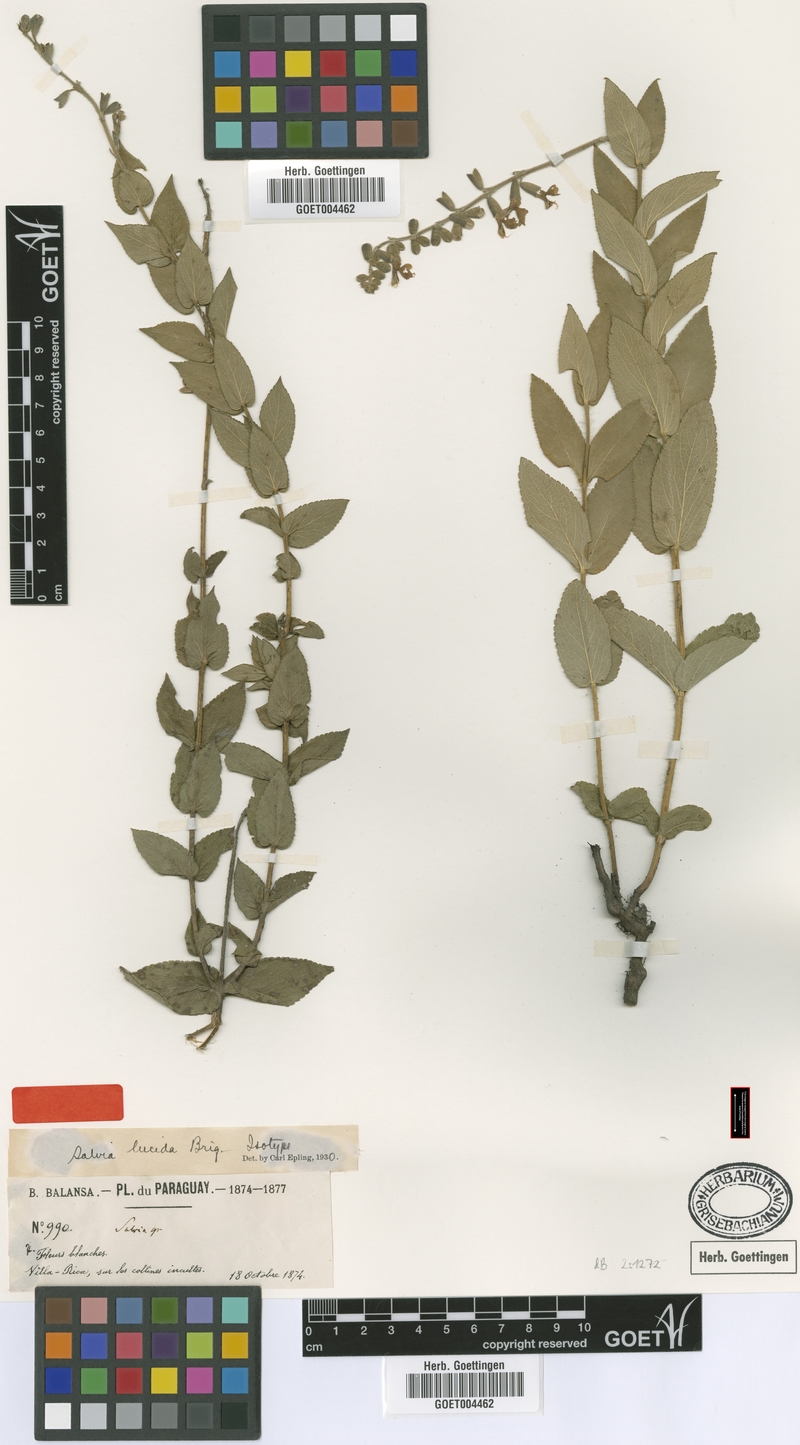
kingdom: Plantae
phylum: Tracheophyta
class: Magnoliopsida
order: Lamiales
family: Lamiaceae
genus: Salvia
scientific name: Salvia nervosa
